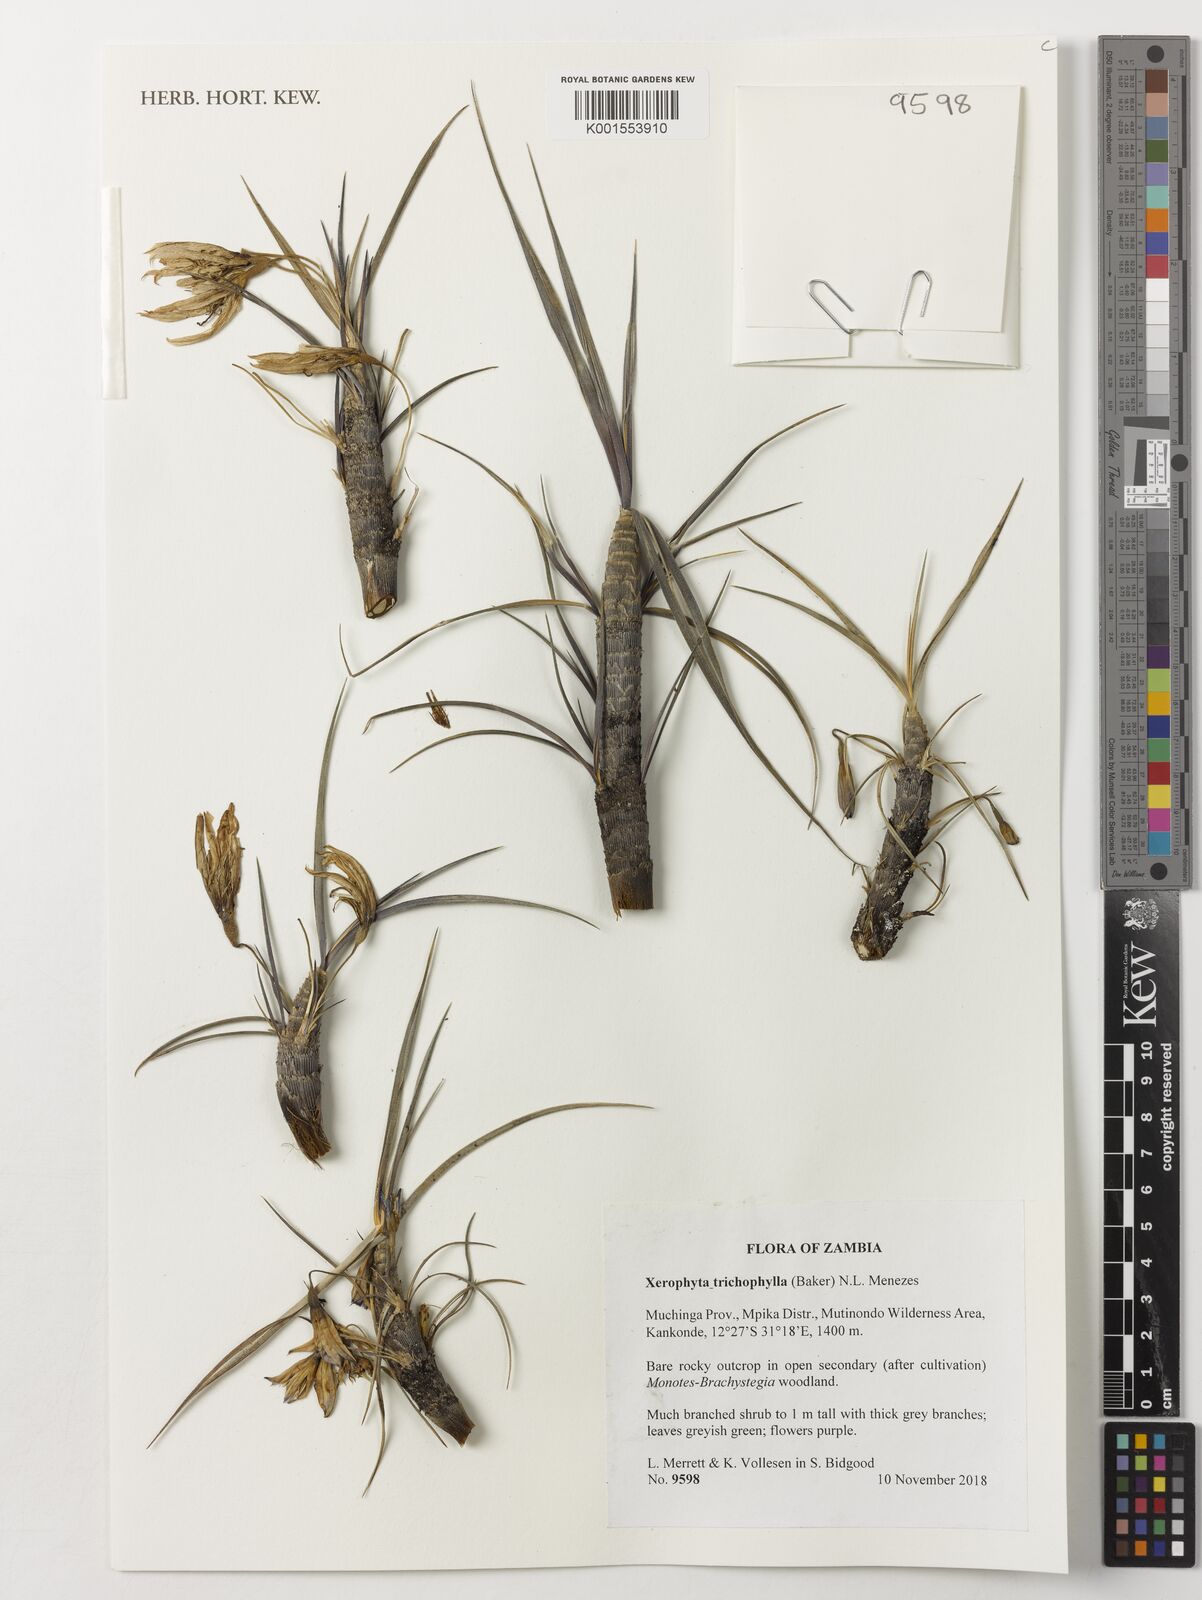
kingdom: Plantae
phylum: Tracheophyta
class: Liliopsida
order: Pandanales
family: Velloziaceae
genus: Xerophyta
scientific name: Xerophyta trichophylla
